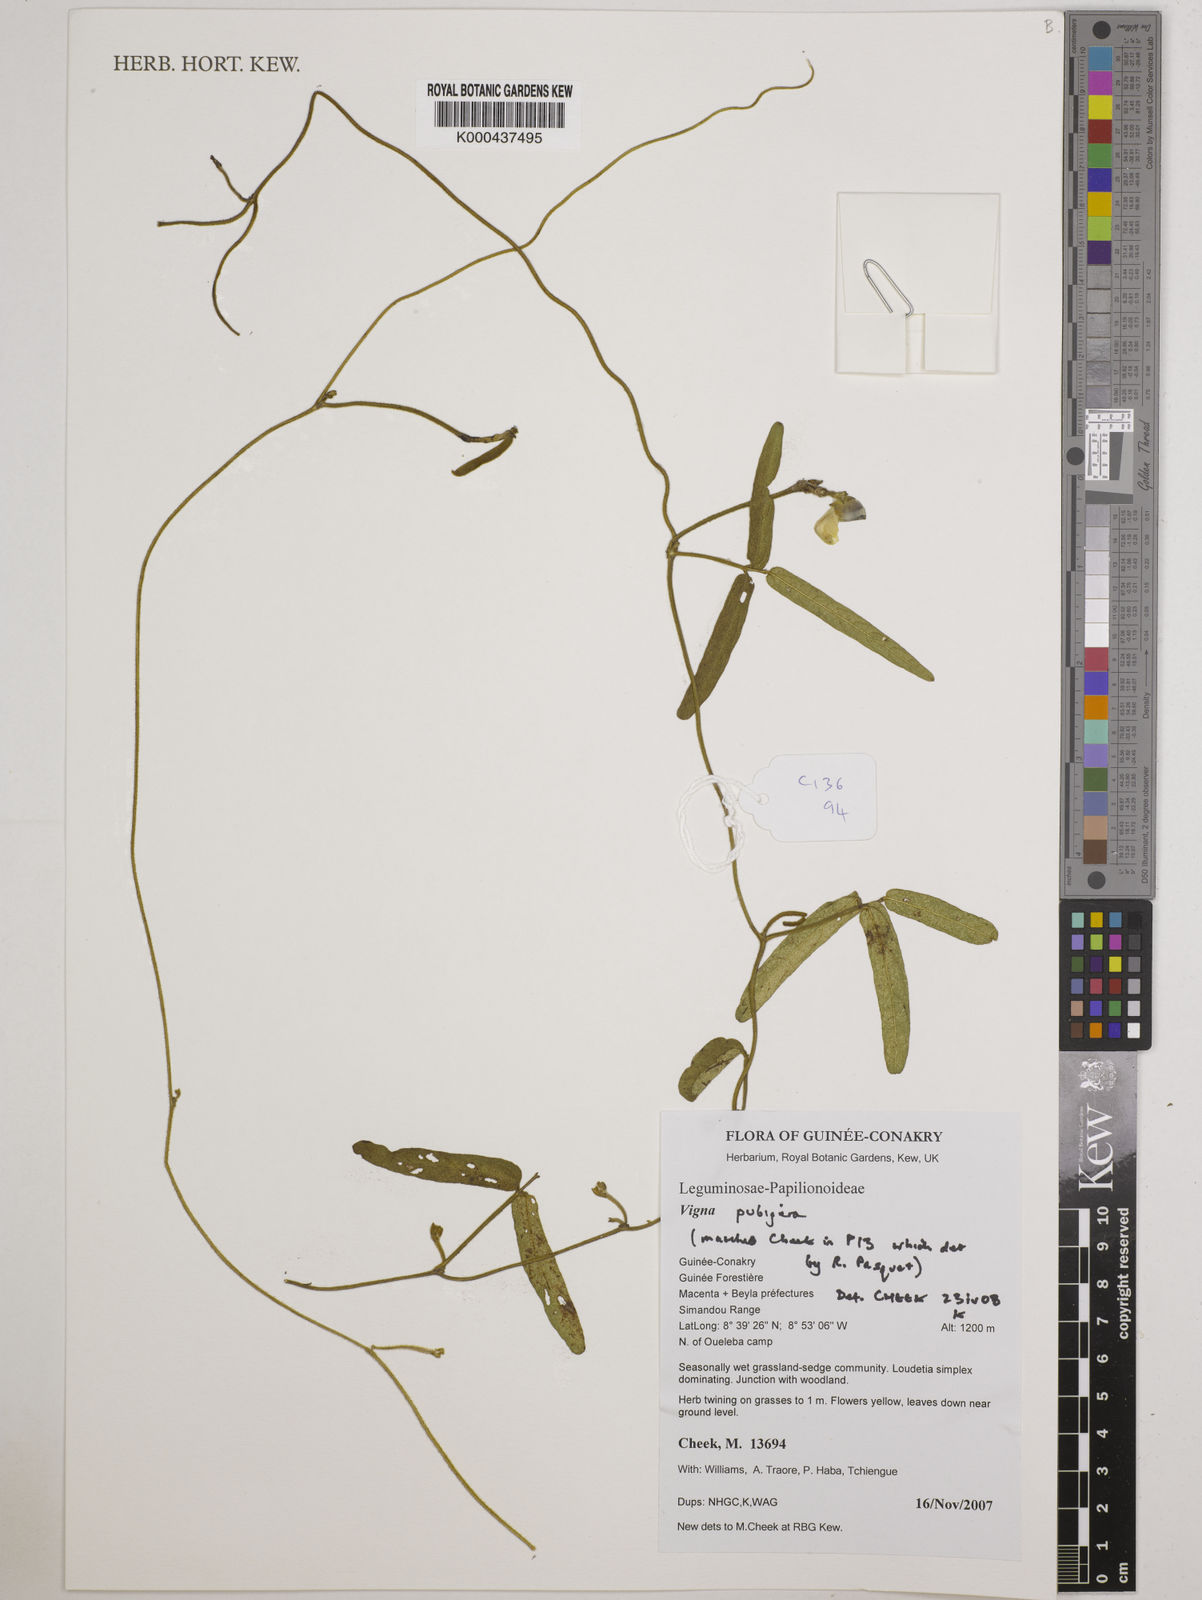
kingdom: Plantae
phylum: Tracheophyta
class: Magnoliopsida
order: Fabales
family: Fabaceae
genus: Vigna
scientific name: Vigna pubigera
